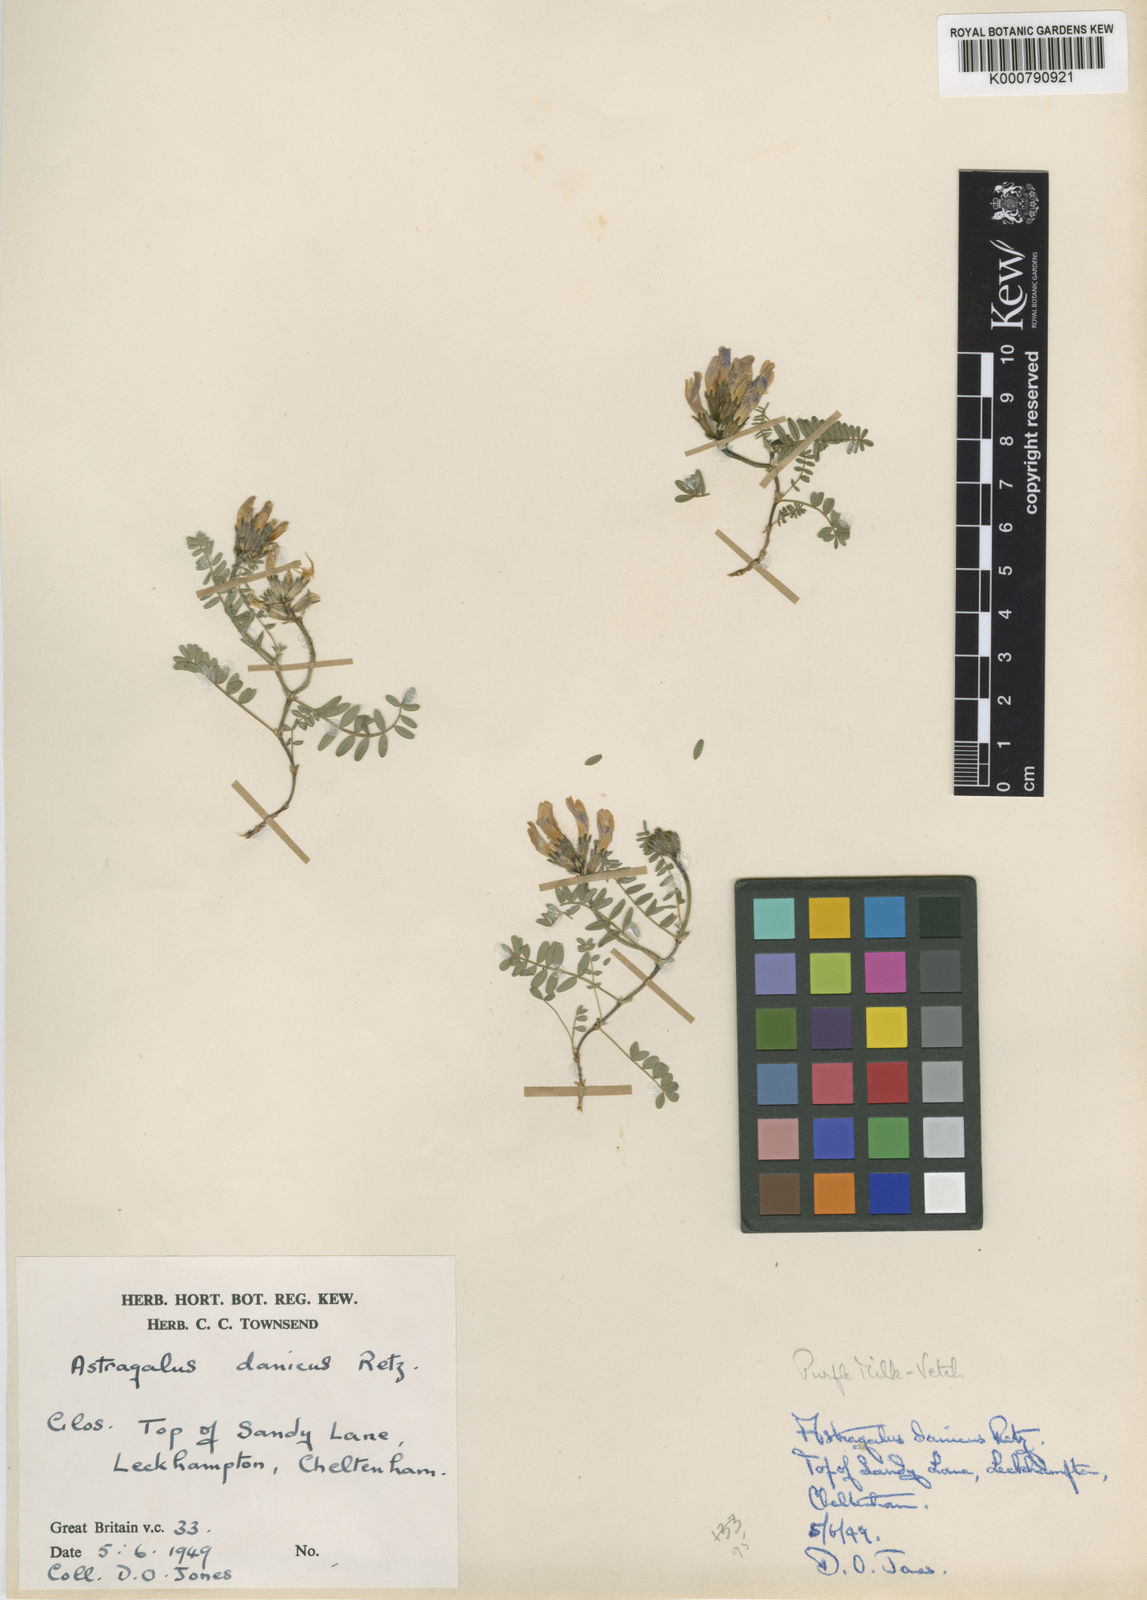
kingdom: Plantae
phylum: Tracheophyta
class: Magnoliopsida
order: Fabales
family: Fabaceae
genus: Astragalus
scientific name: Astragalus danicus
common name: Purple milk-vetch
